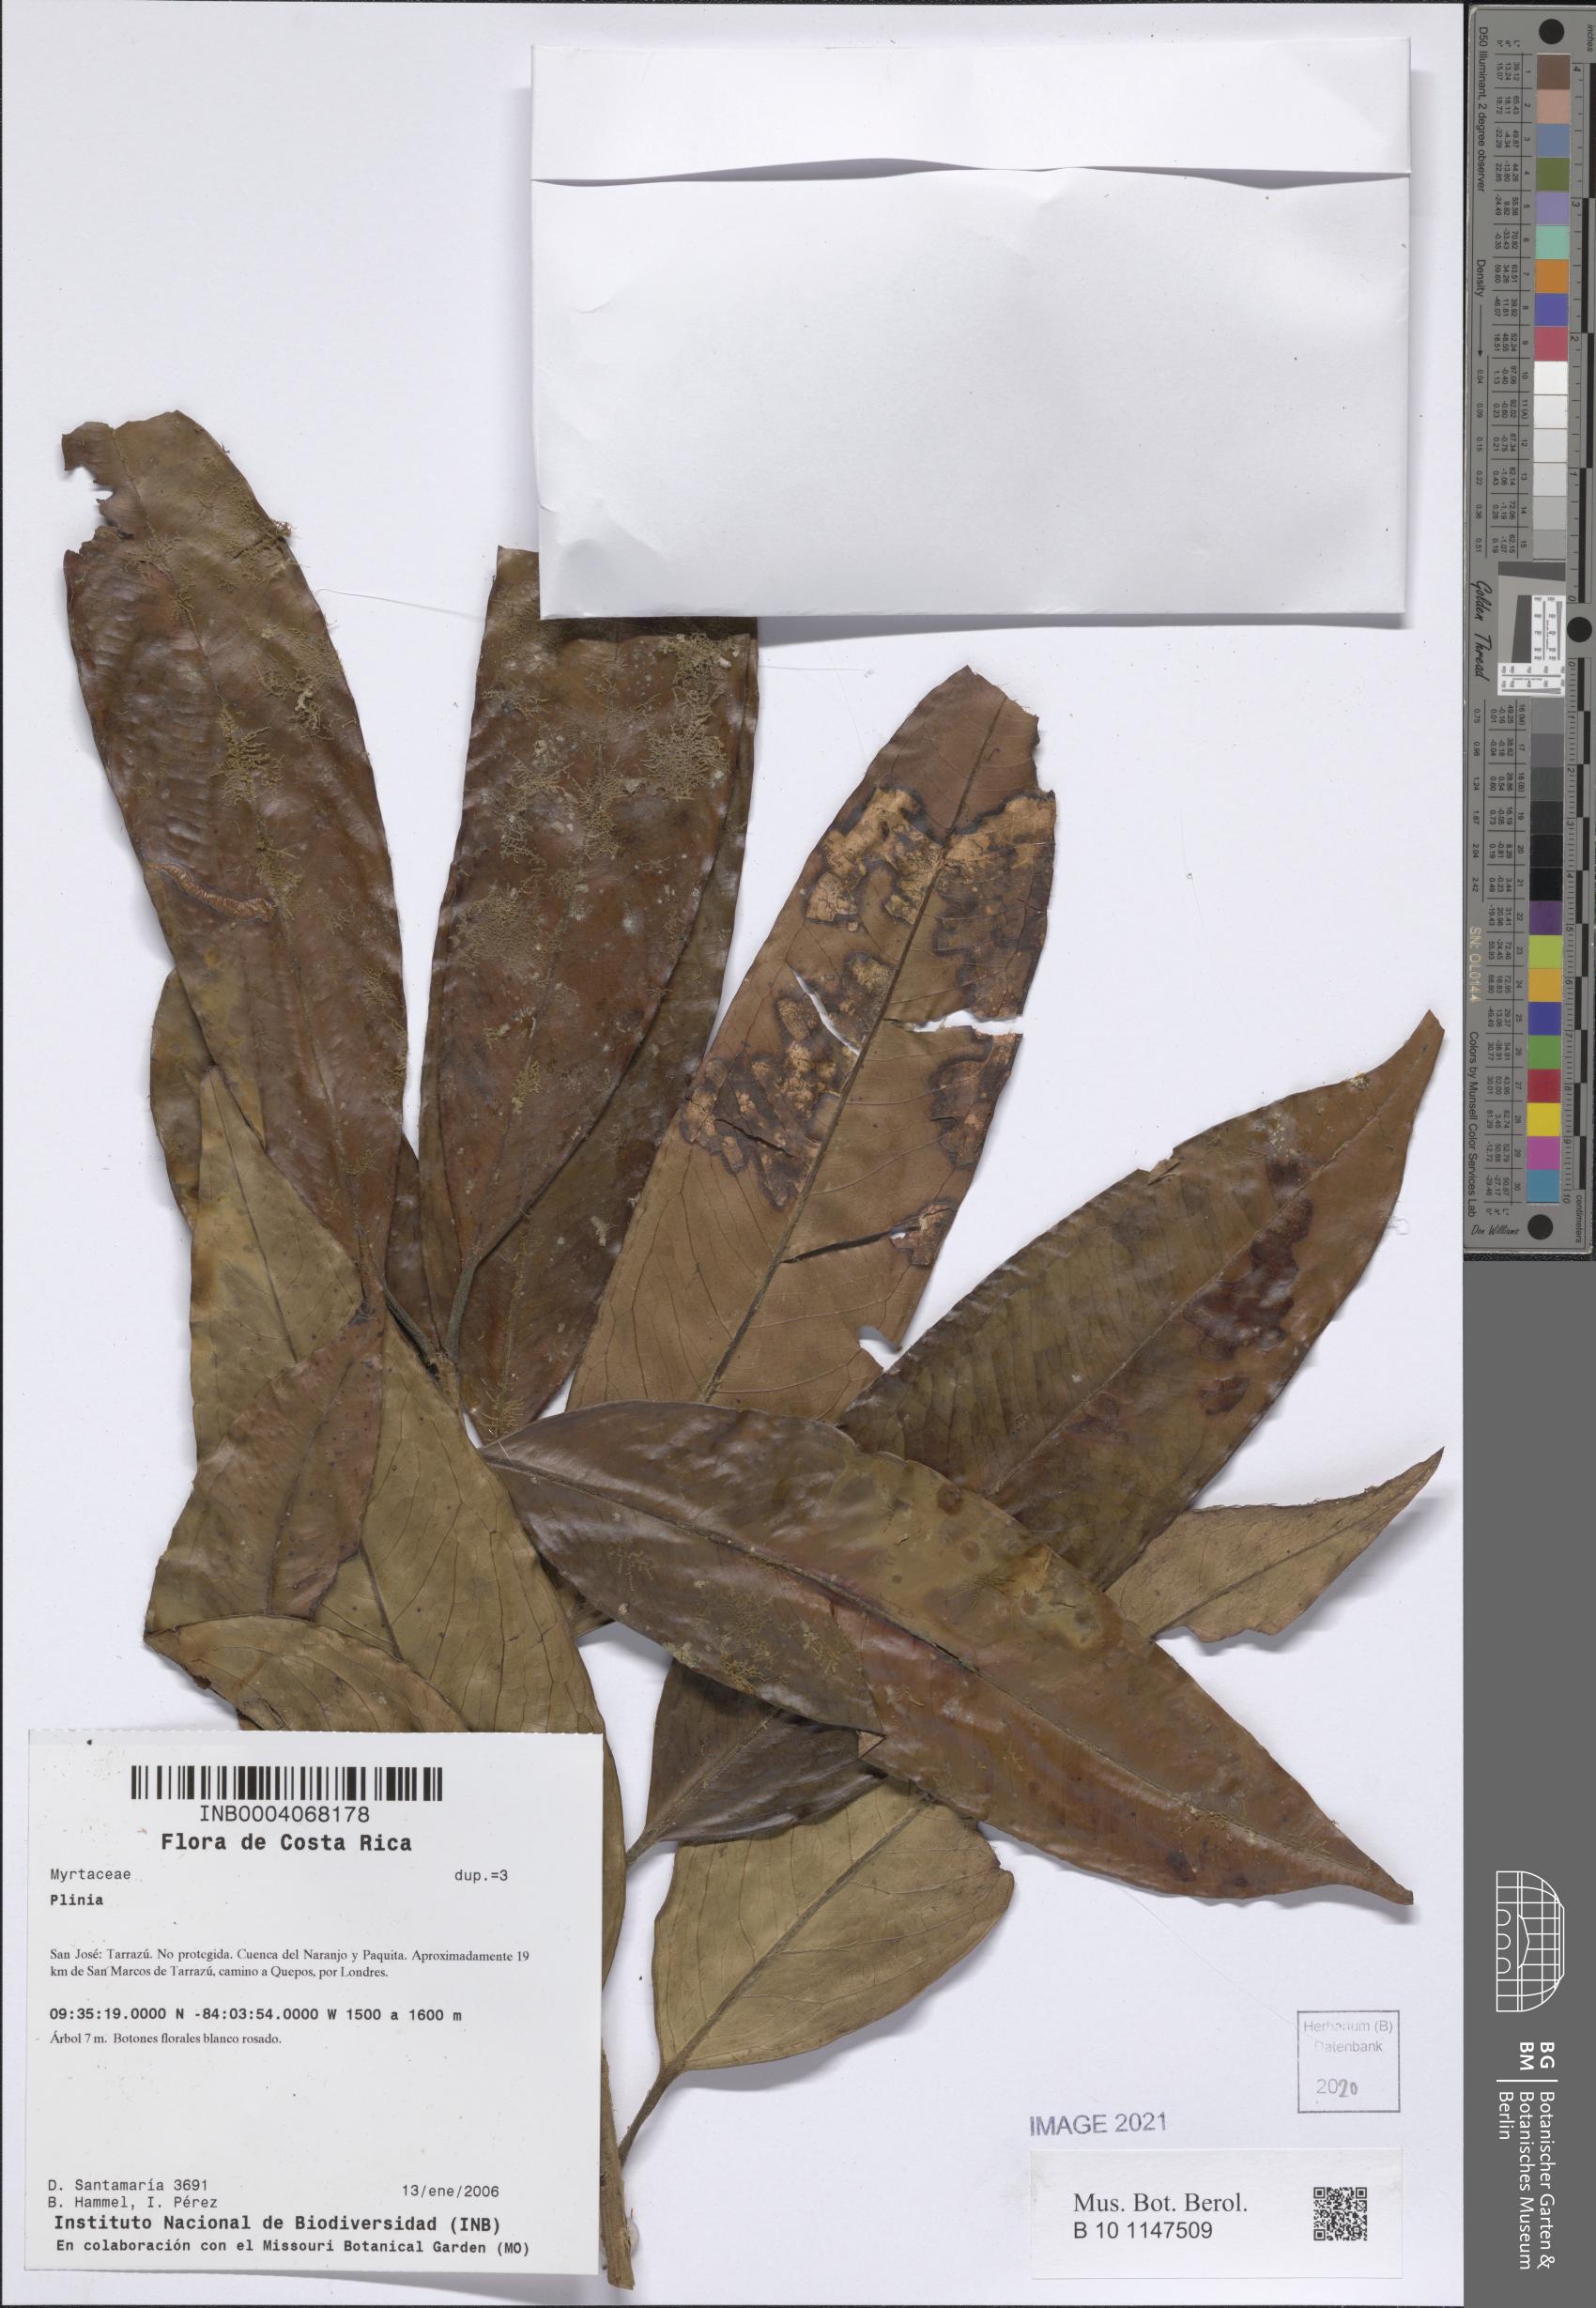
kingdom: Plantae
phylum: Tracheophyta
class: Magnoliopsida
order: Myrtales
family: Myrtaceae
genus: Plinia
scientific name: Plinia
